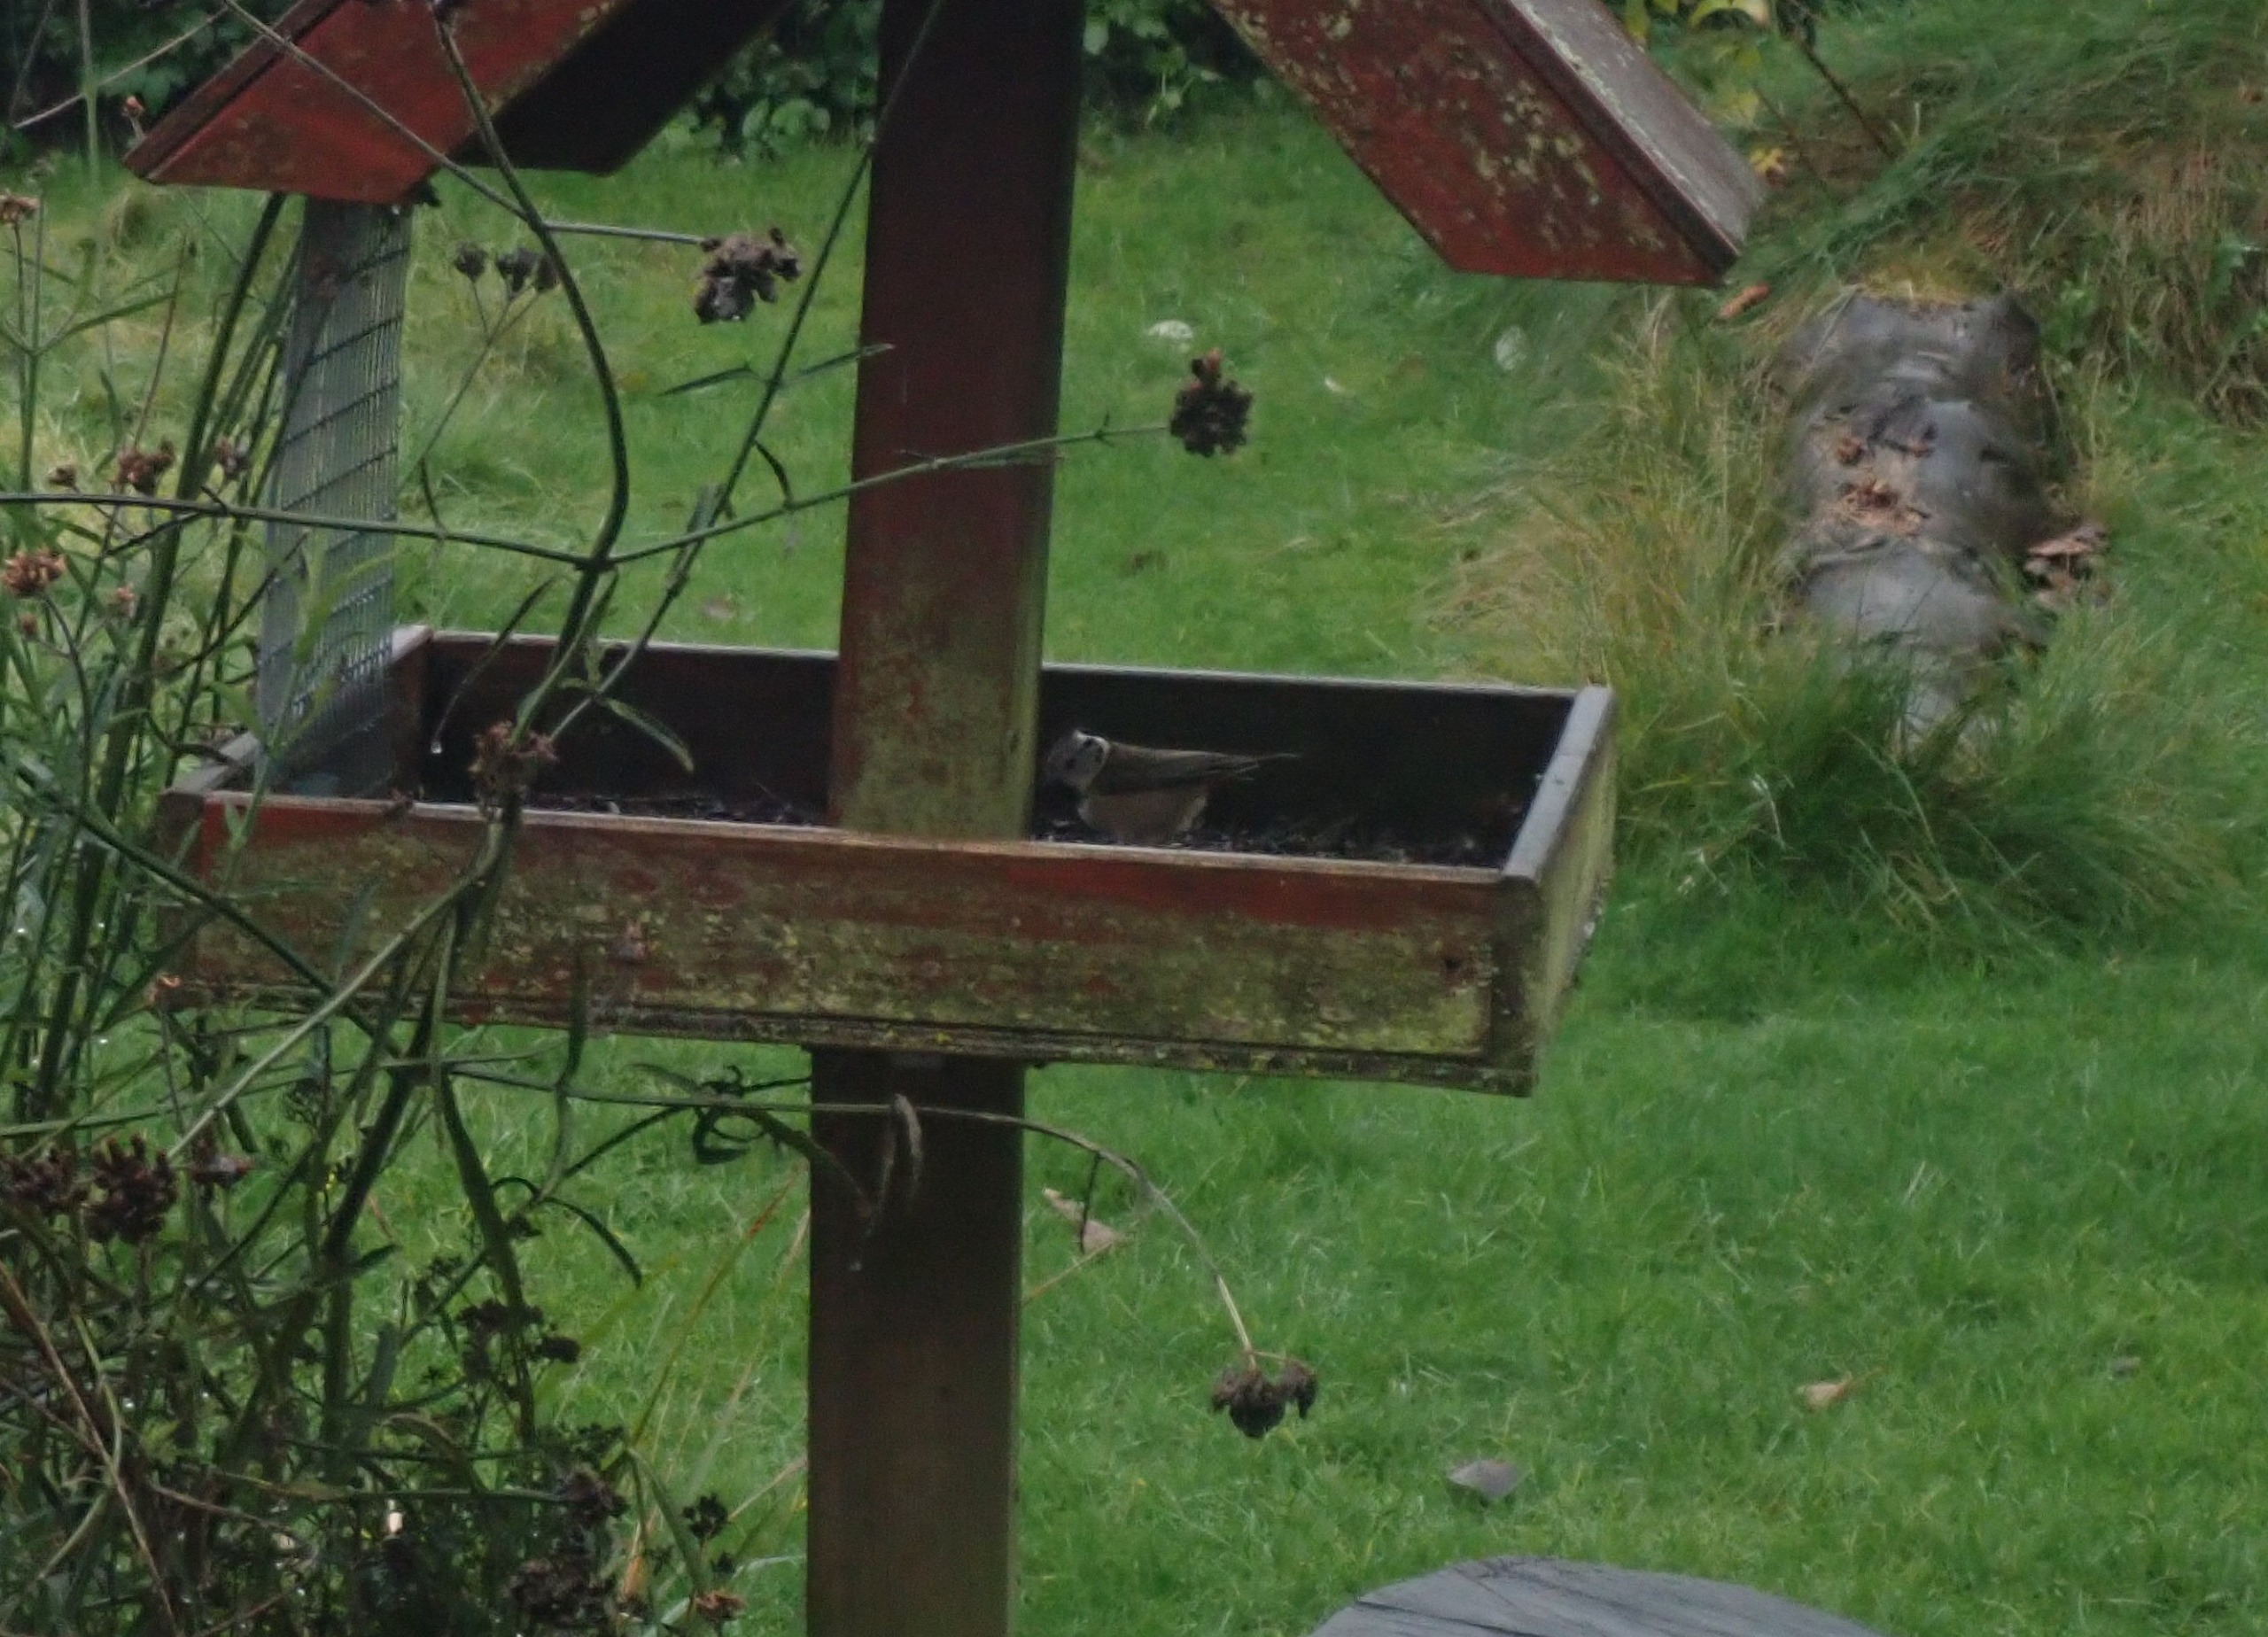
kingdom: Animalia
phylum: Chordata
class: Aves
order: Passeriformes
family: Paridae
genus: Lophophanes
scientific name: Lophophanes cristatus
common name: Topmejse
